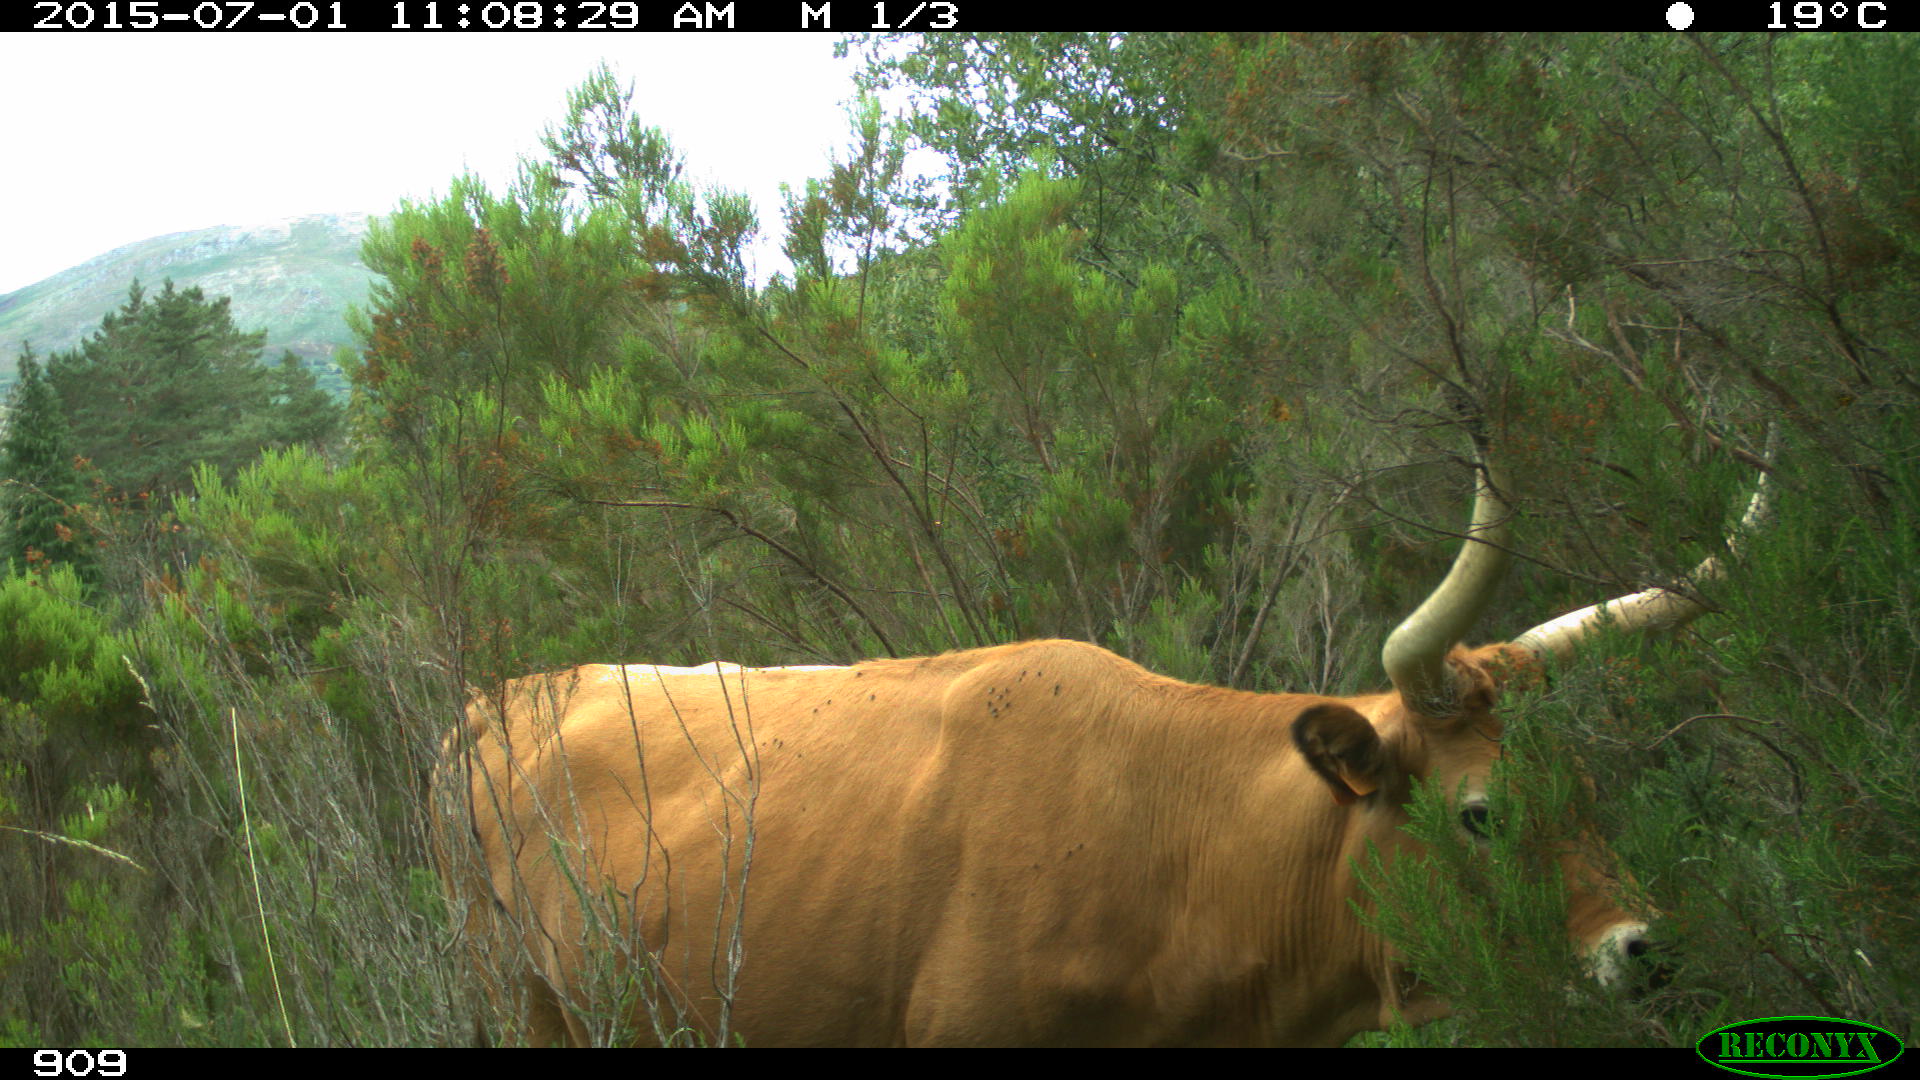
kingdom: Animalia
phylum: Chordata
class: Mammalia
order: Artiodactyla
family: Bovidae
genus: Bos
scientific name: Bos taurus
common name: Domesticated cattle
